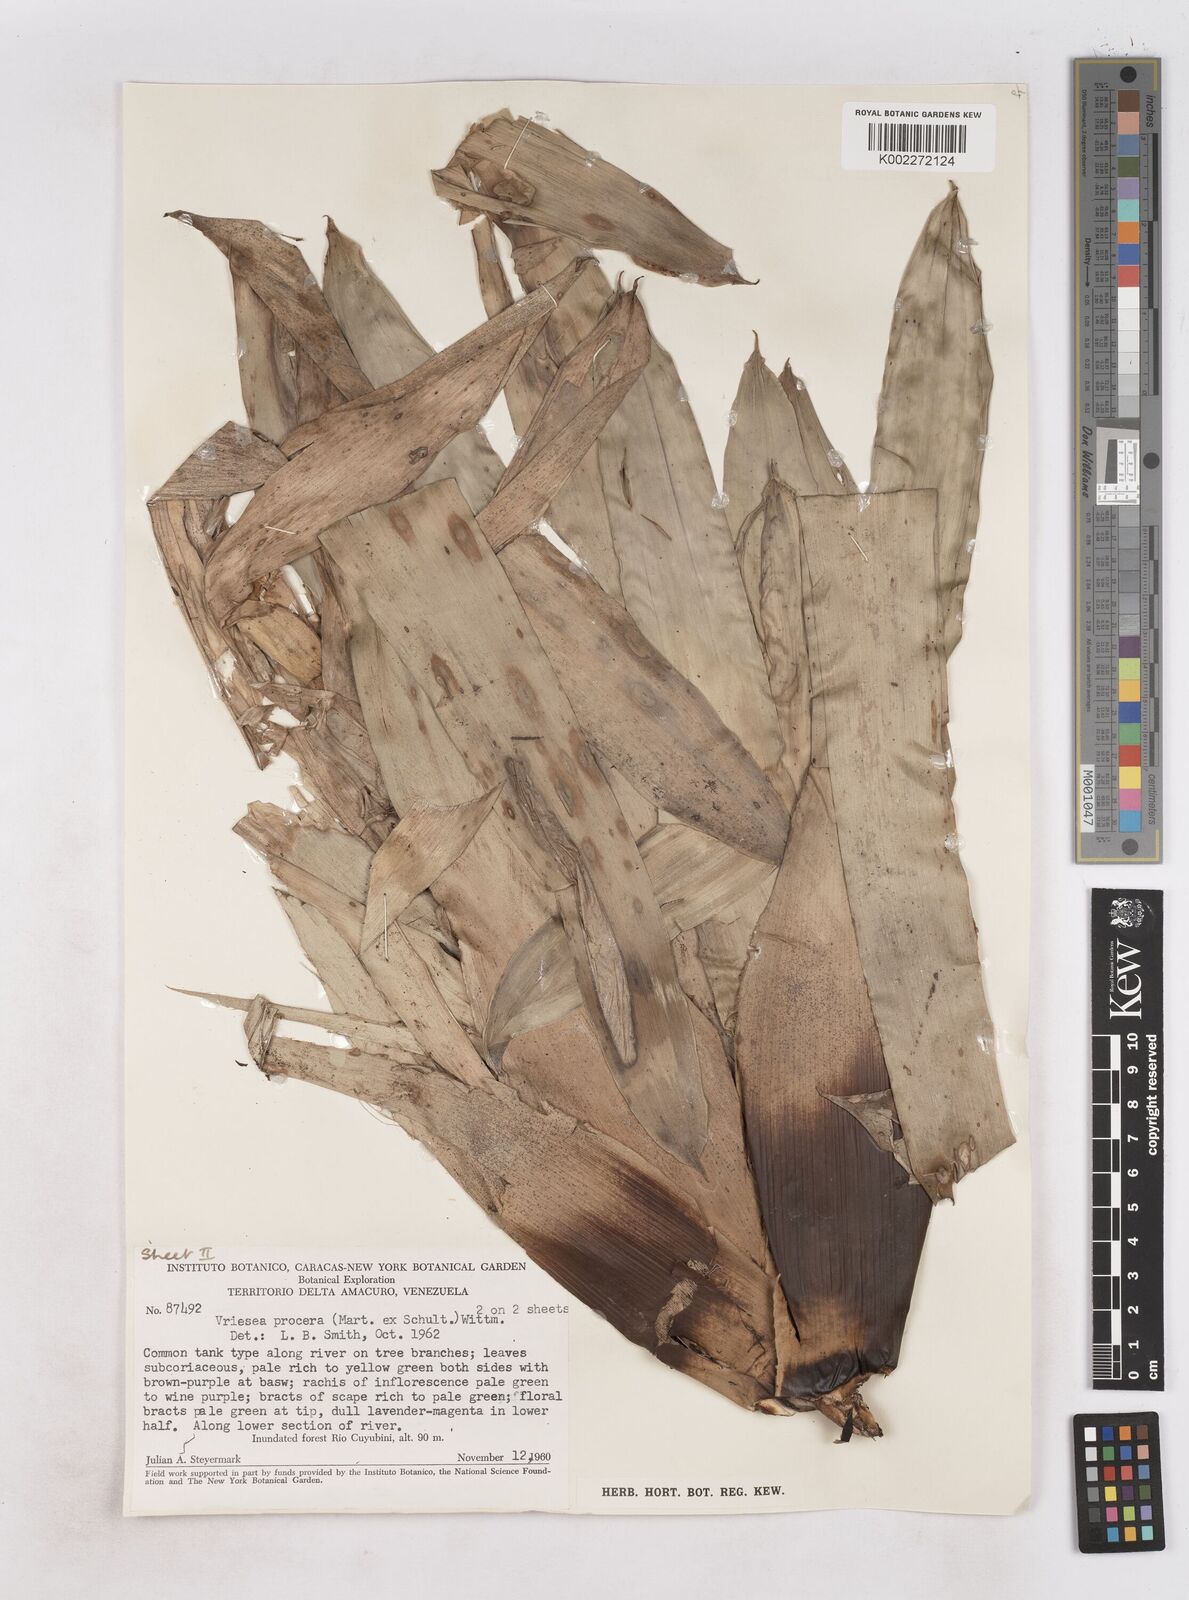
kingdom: Plantae
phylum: Tracheophyta
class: Liliopsida
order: Poales
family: Bromeliaceae
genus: Vriesea
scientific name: Vriesea procera
